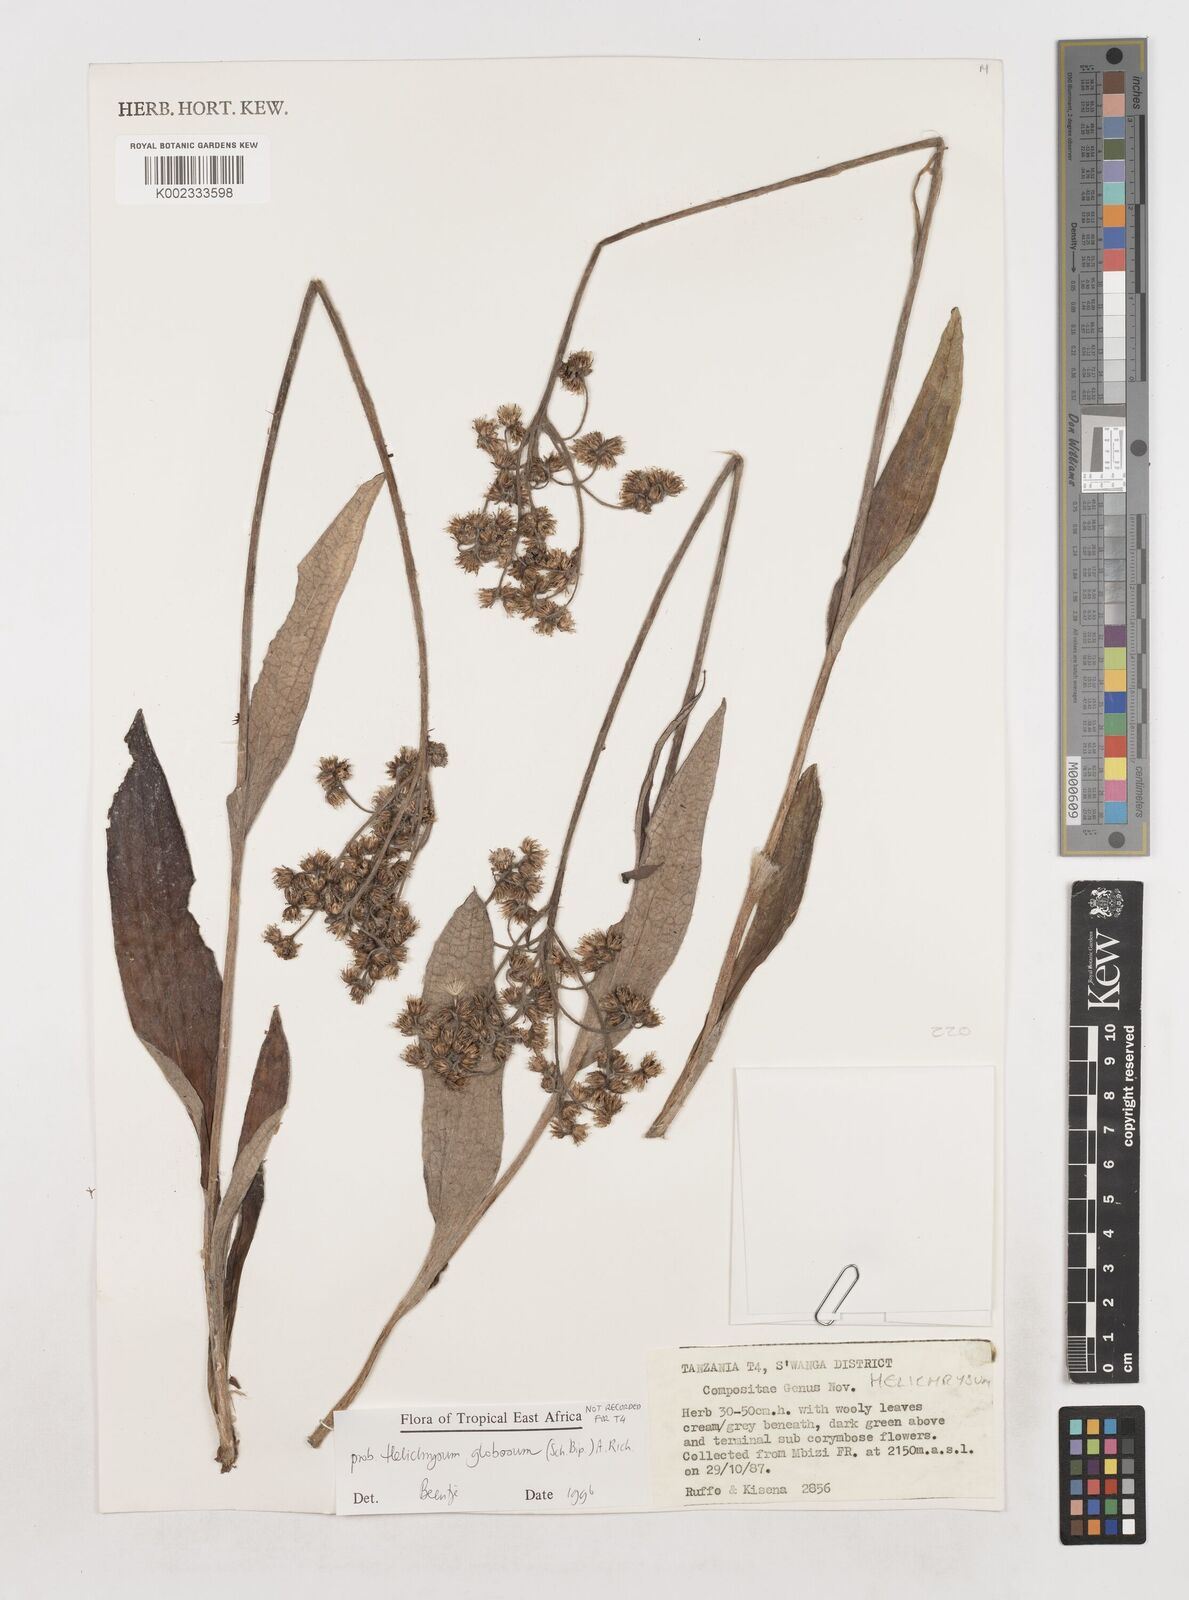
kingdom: Plantae
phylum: Tracheophyta
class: Magnoliopsida
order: Asterales
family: Asteraceae
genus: Helichrysum
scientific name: Helichrysum globosum
